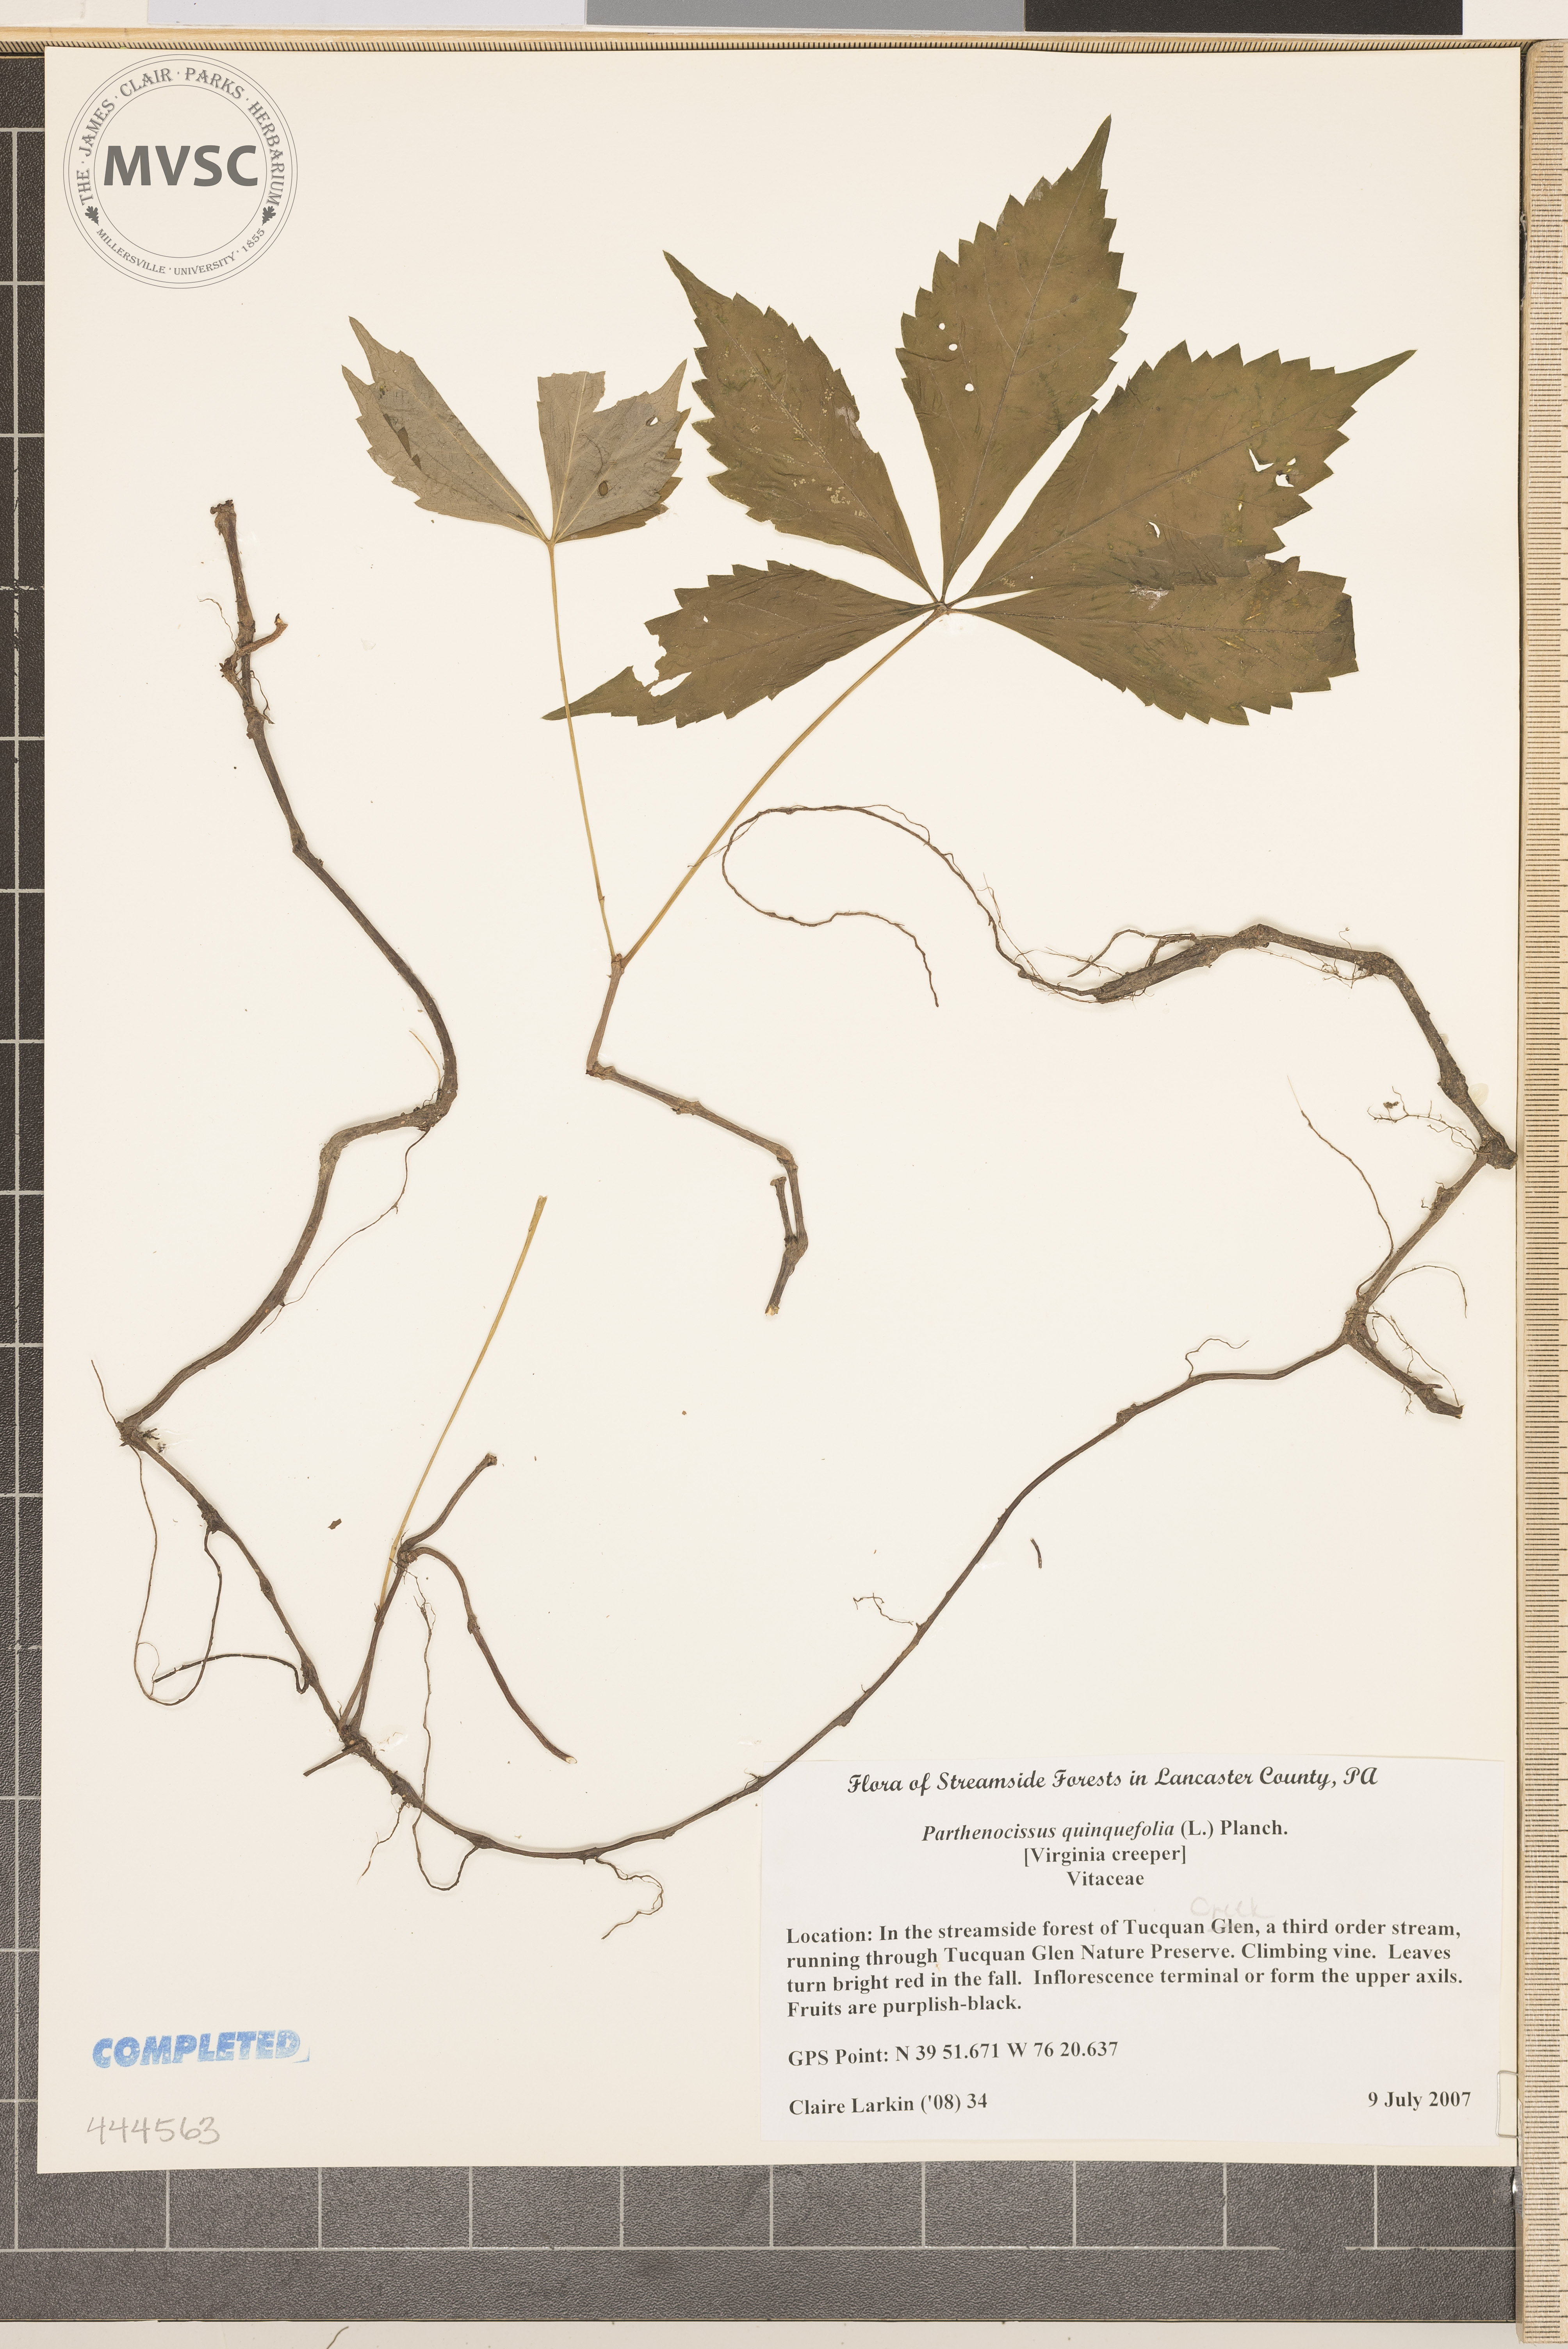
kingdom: Plantae
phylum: Tracheophyta
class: Magnoliopsida
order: Vitales
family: Vitaceae
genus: Parthenocissus
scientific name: Parthenocissus quinquefolia
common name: Virginia Creeper
